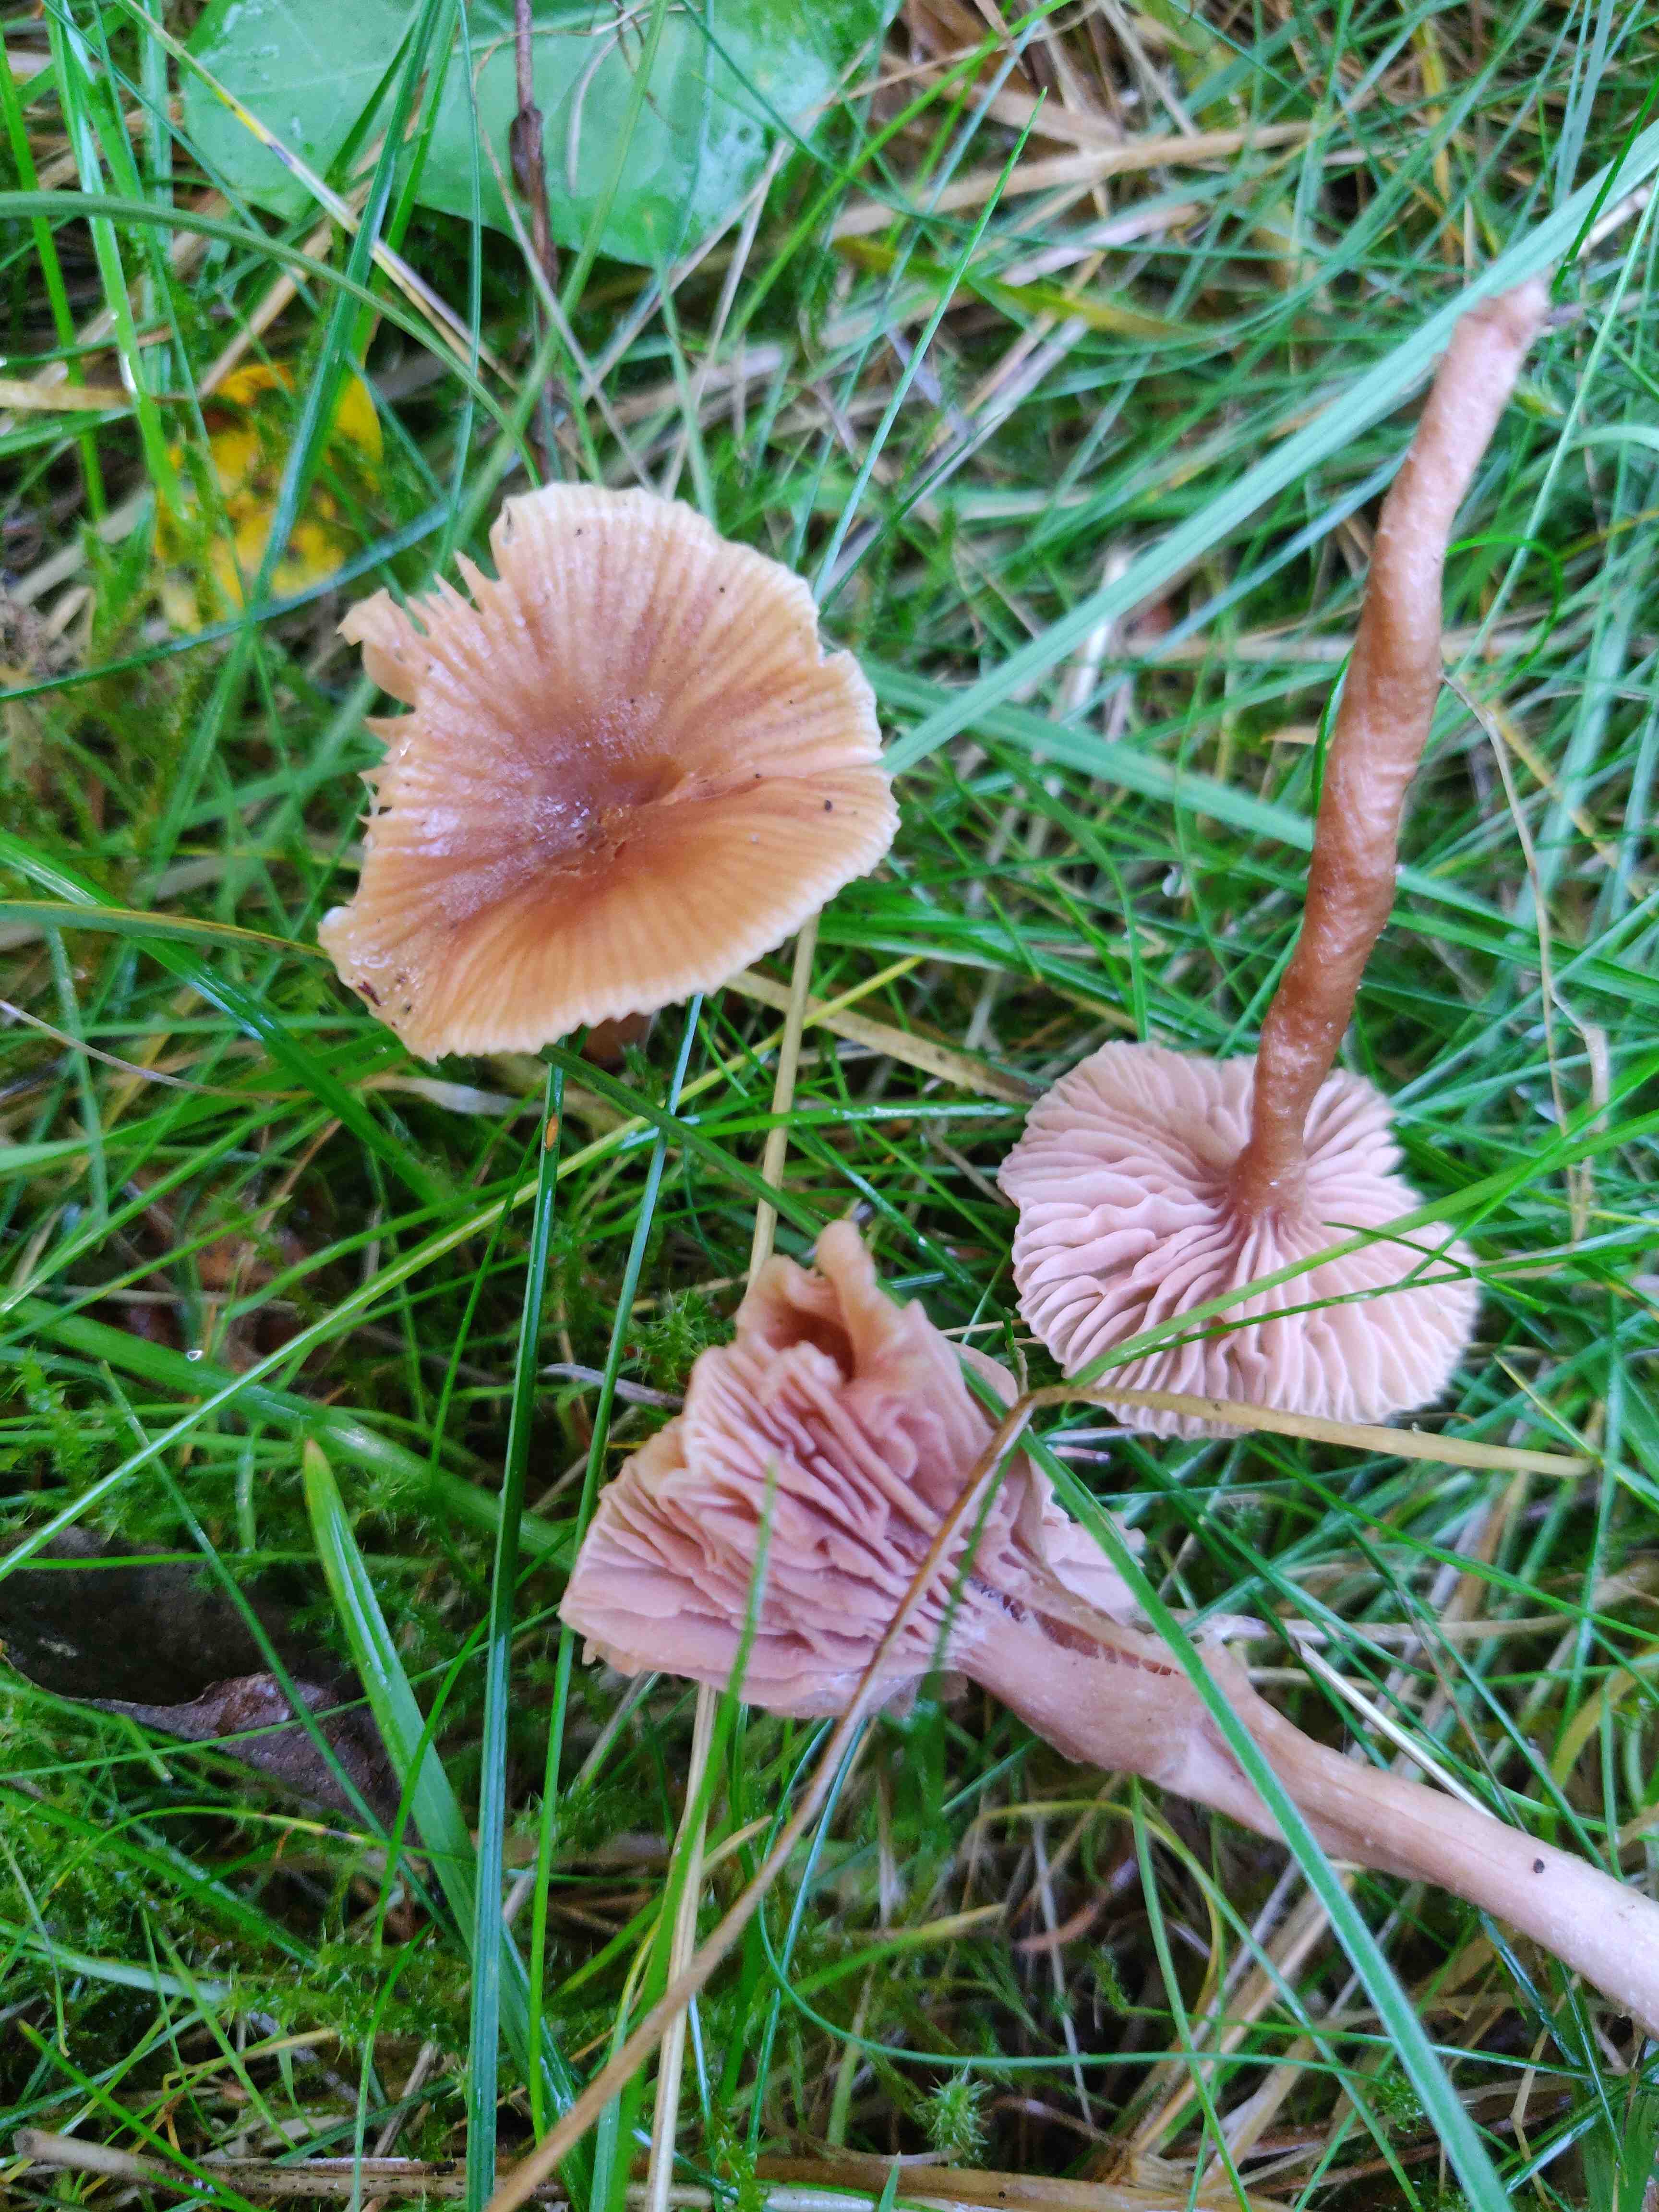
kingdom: Fungi
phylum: Basidiomycota
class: Agaricomycetes
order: Agaricales
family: Hydnangiaceae
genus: Laccaria
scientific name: Laccaria laccata
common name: rød ametysthat
